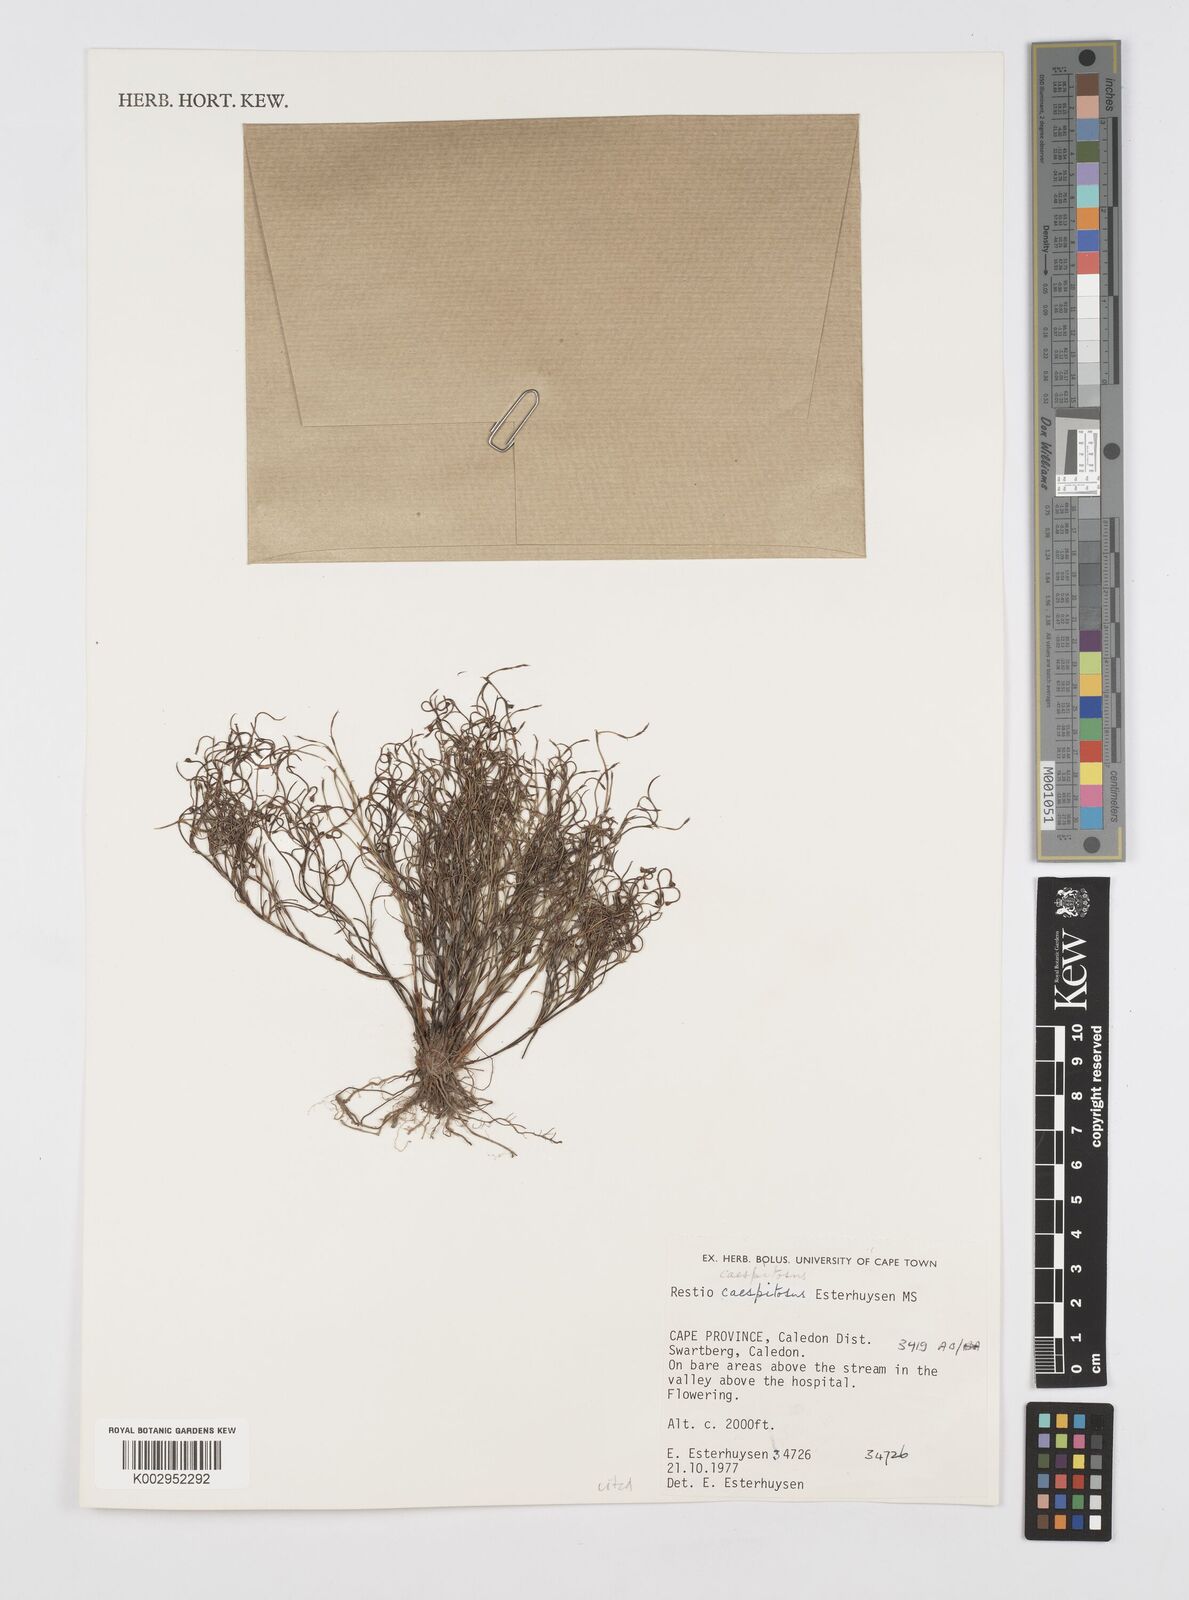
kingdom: Plantae
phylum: Tracheophyta
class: Liliopsida
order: Poales
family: Restionaceae
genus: Restio
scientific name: Restio caespitosus
